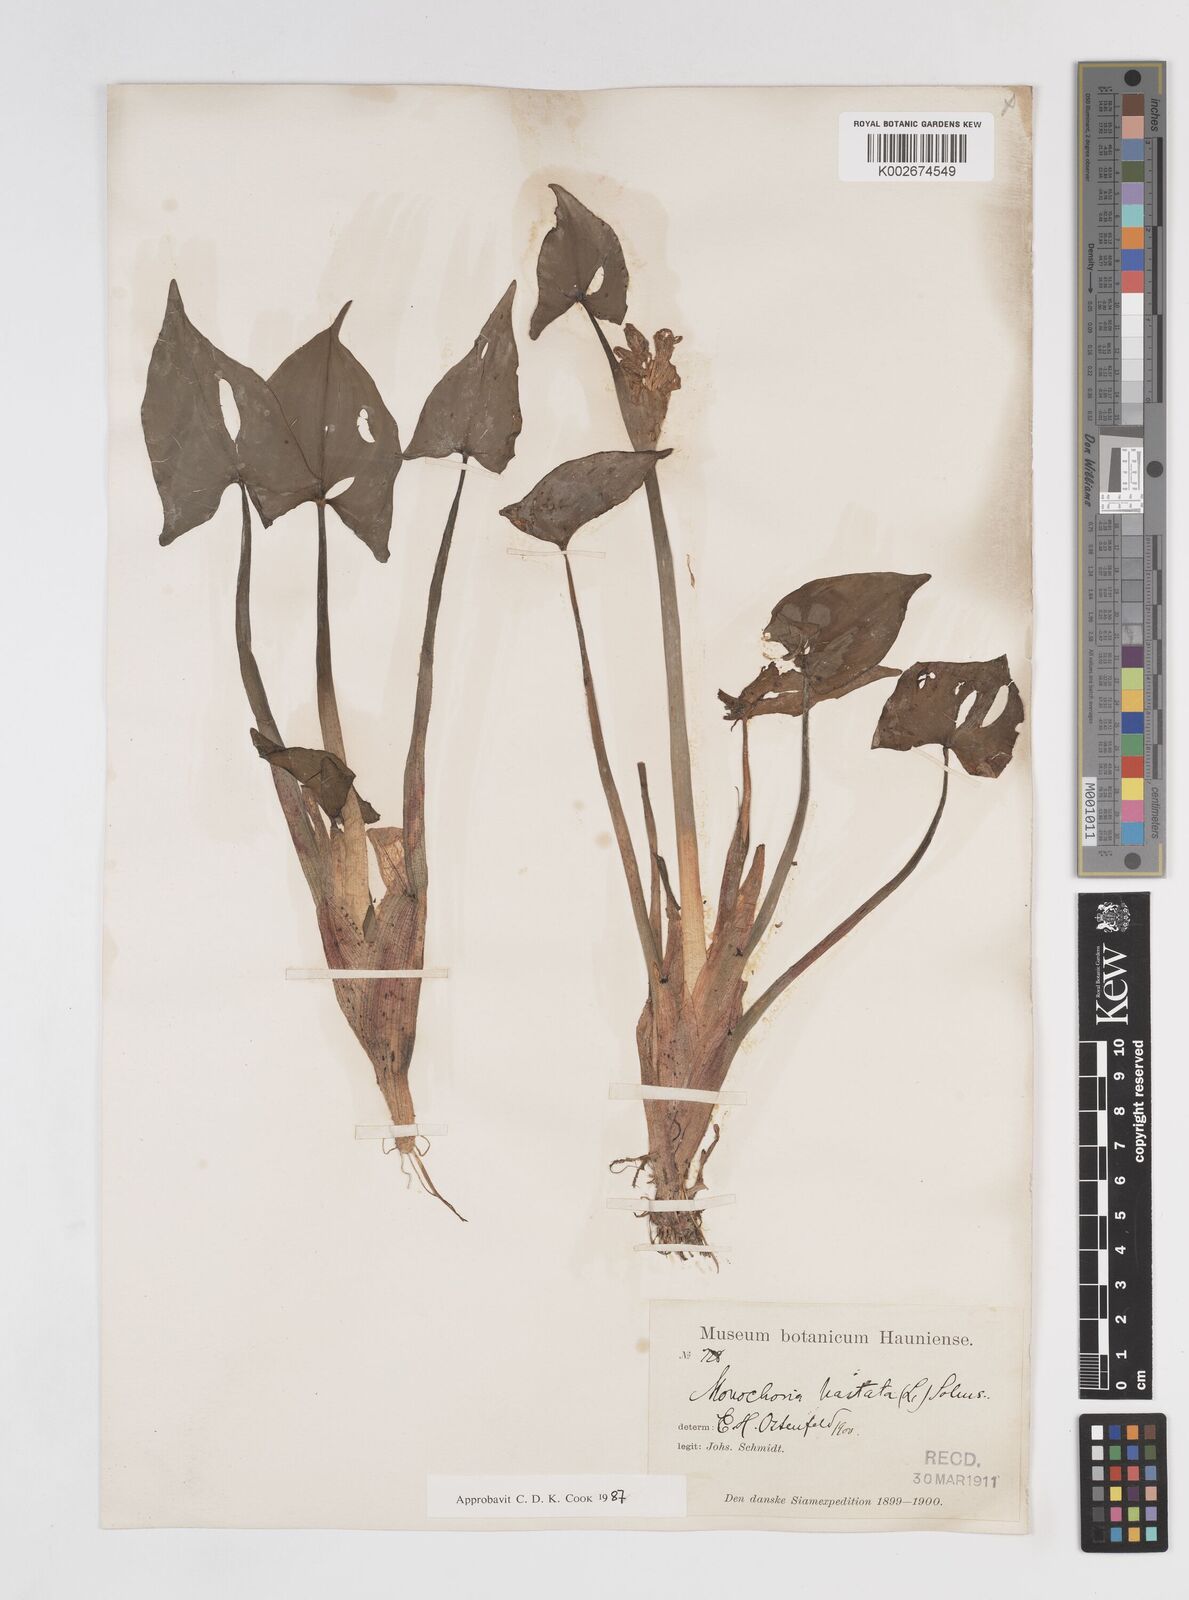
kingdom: Plantae
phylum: Tracheophyta
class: Liliopsida
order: Commelinales
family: Pontederiaceae
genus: Pontederia
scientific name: Pontederia hastata
